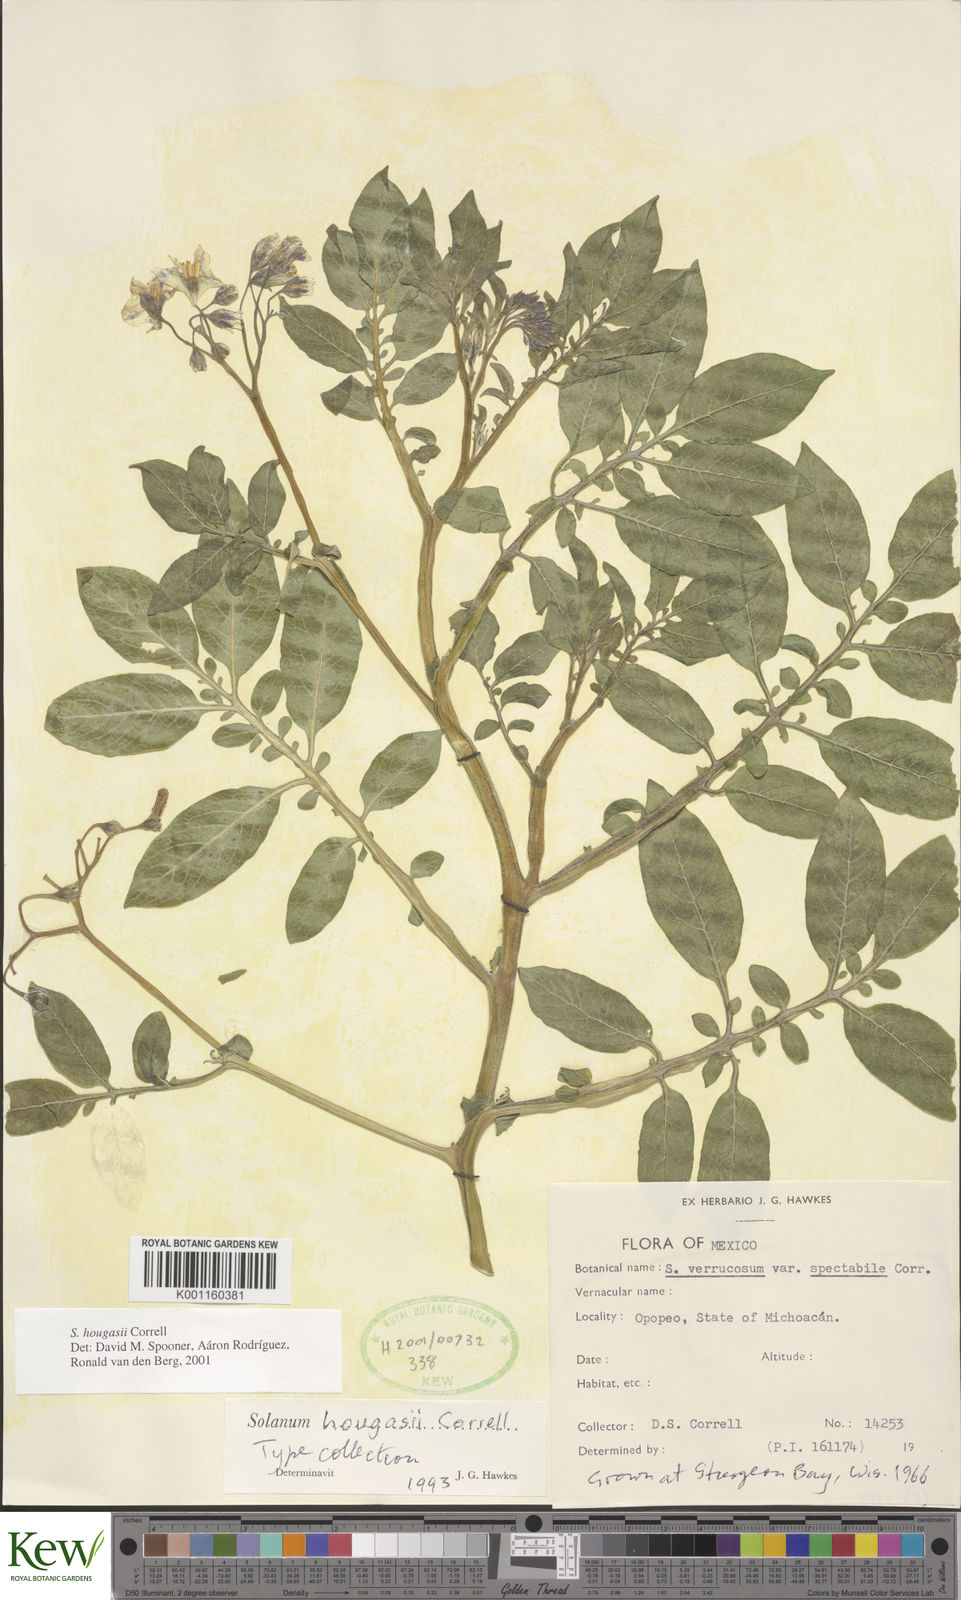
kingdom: Plantae
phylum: Tracheophyta
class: Magnoliopsida
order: Solanales
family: Solanaceae
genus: Solanum
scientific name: Solanum hougasii
